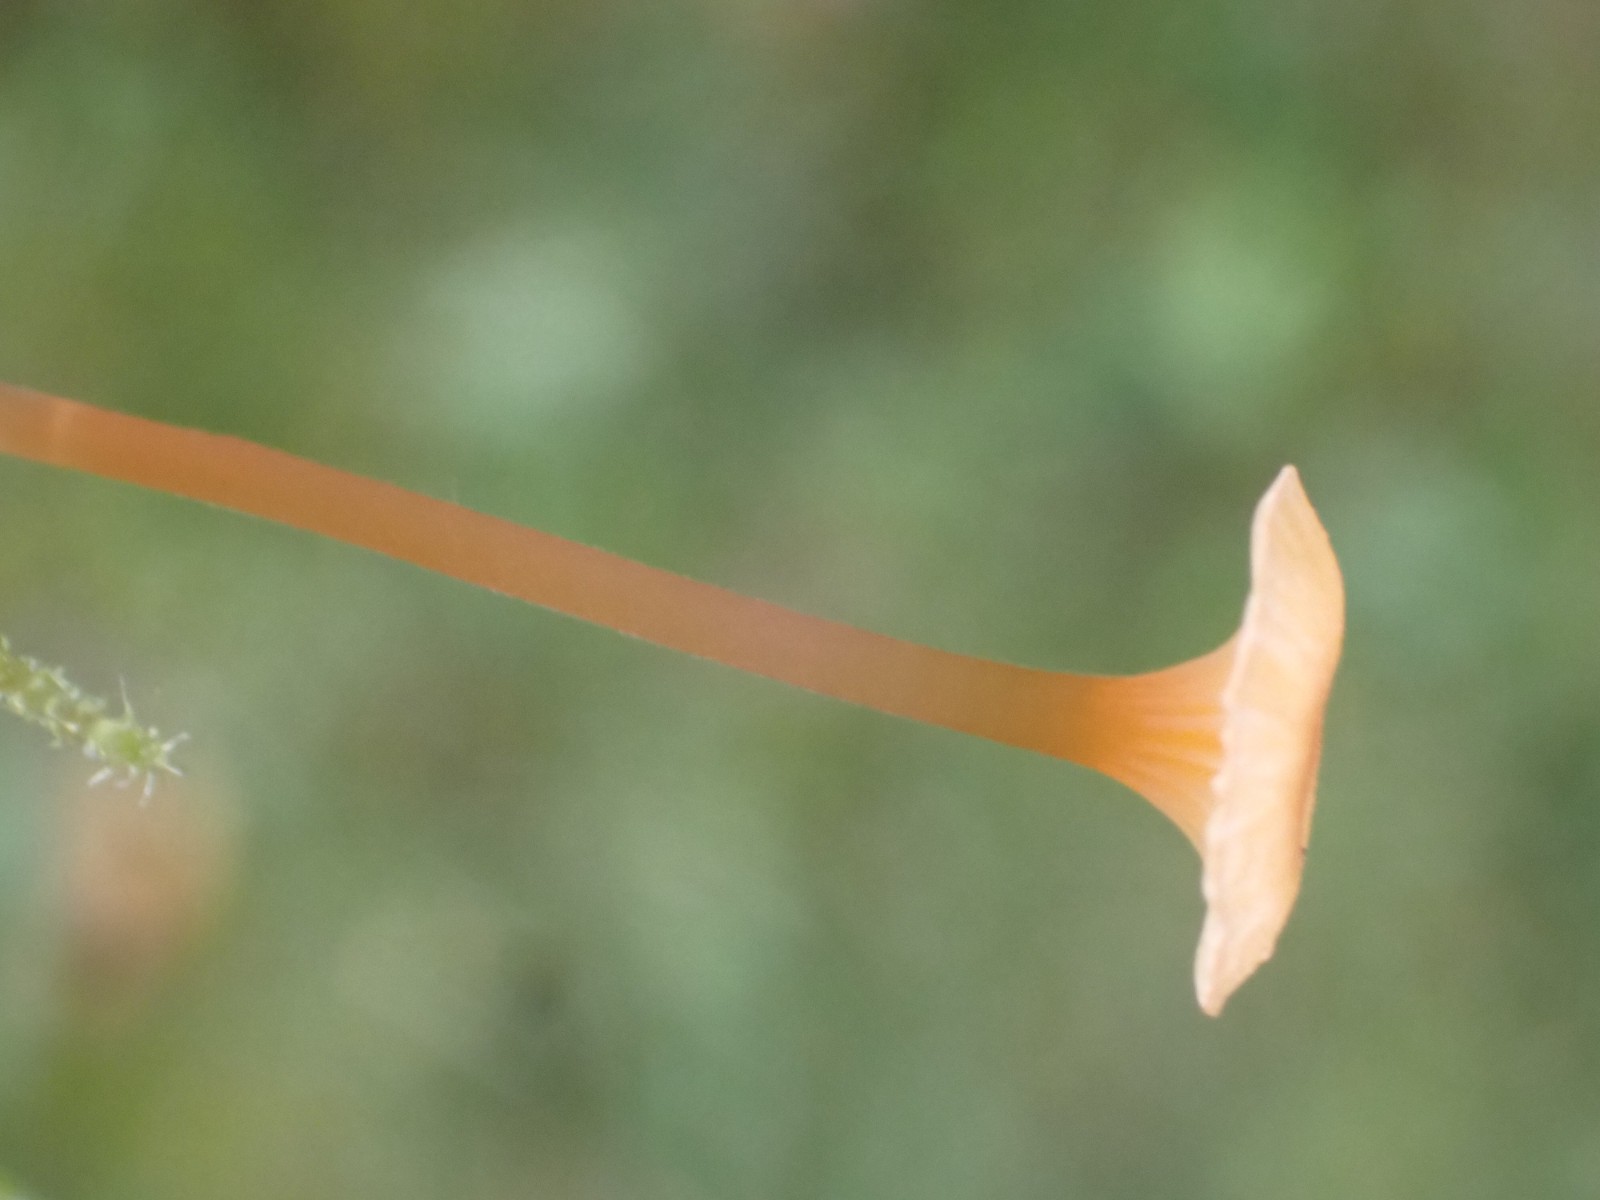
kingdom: Fungi
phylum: Basidiomycota
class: Agaricomycetes
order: Hymenochaetales
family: Rickenellaceae
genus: Rickenella
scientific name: Rickenella fibula
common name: orange mosnavlehat
